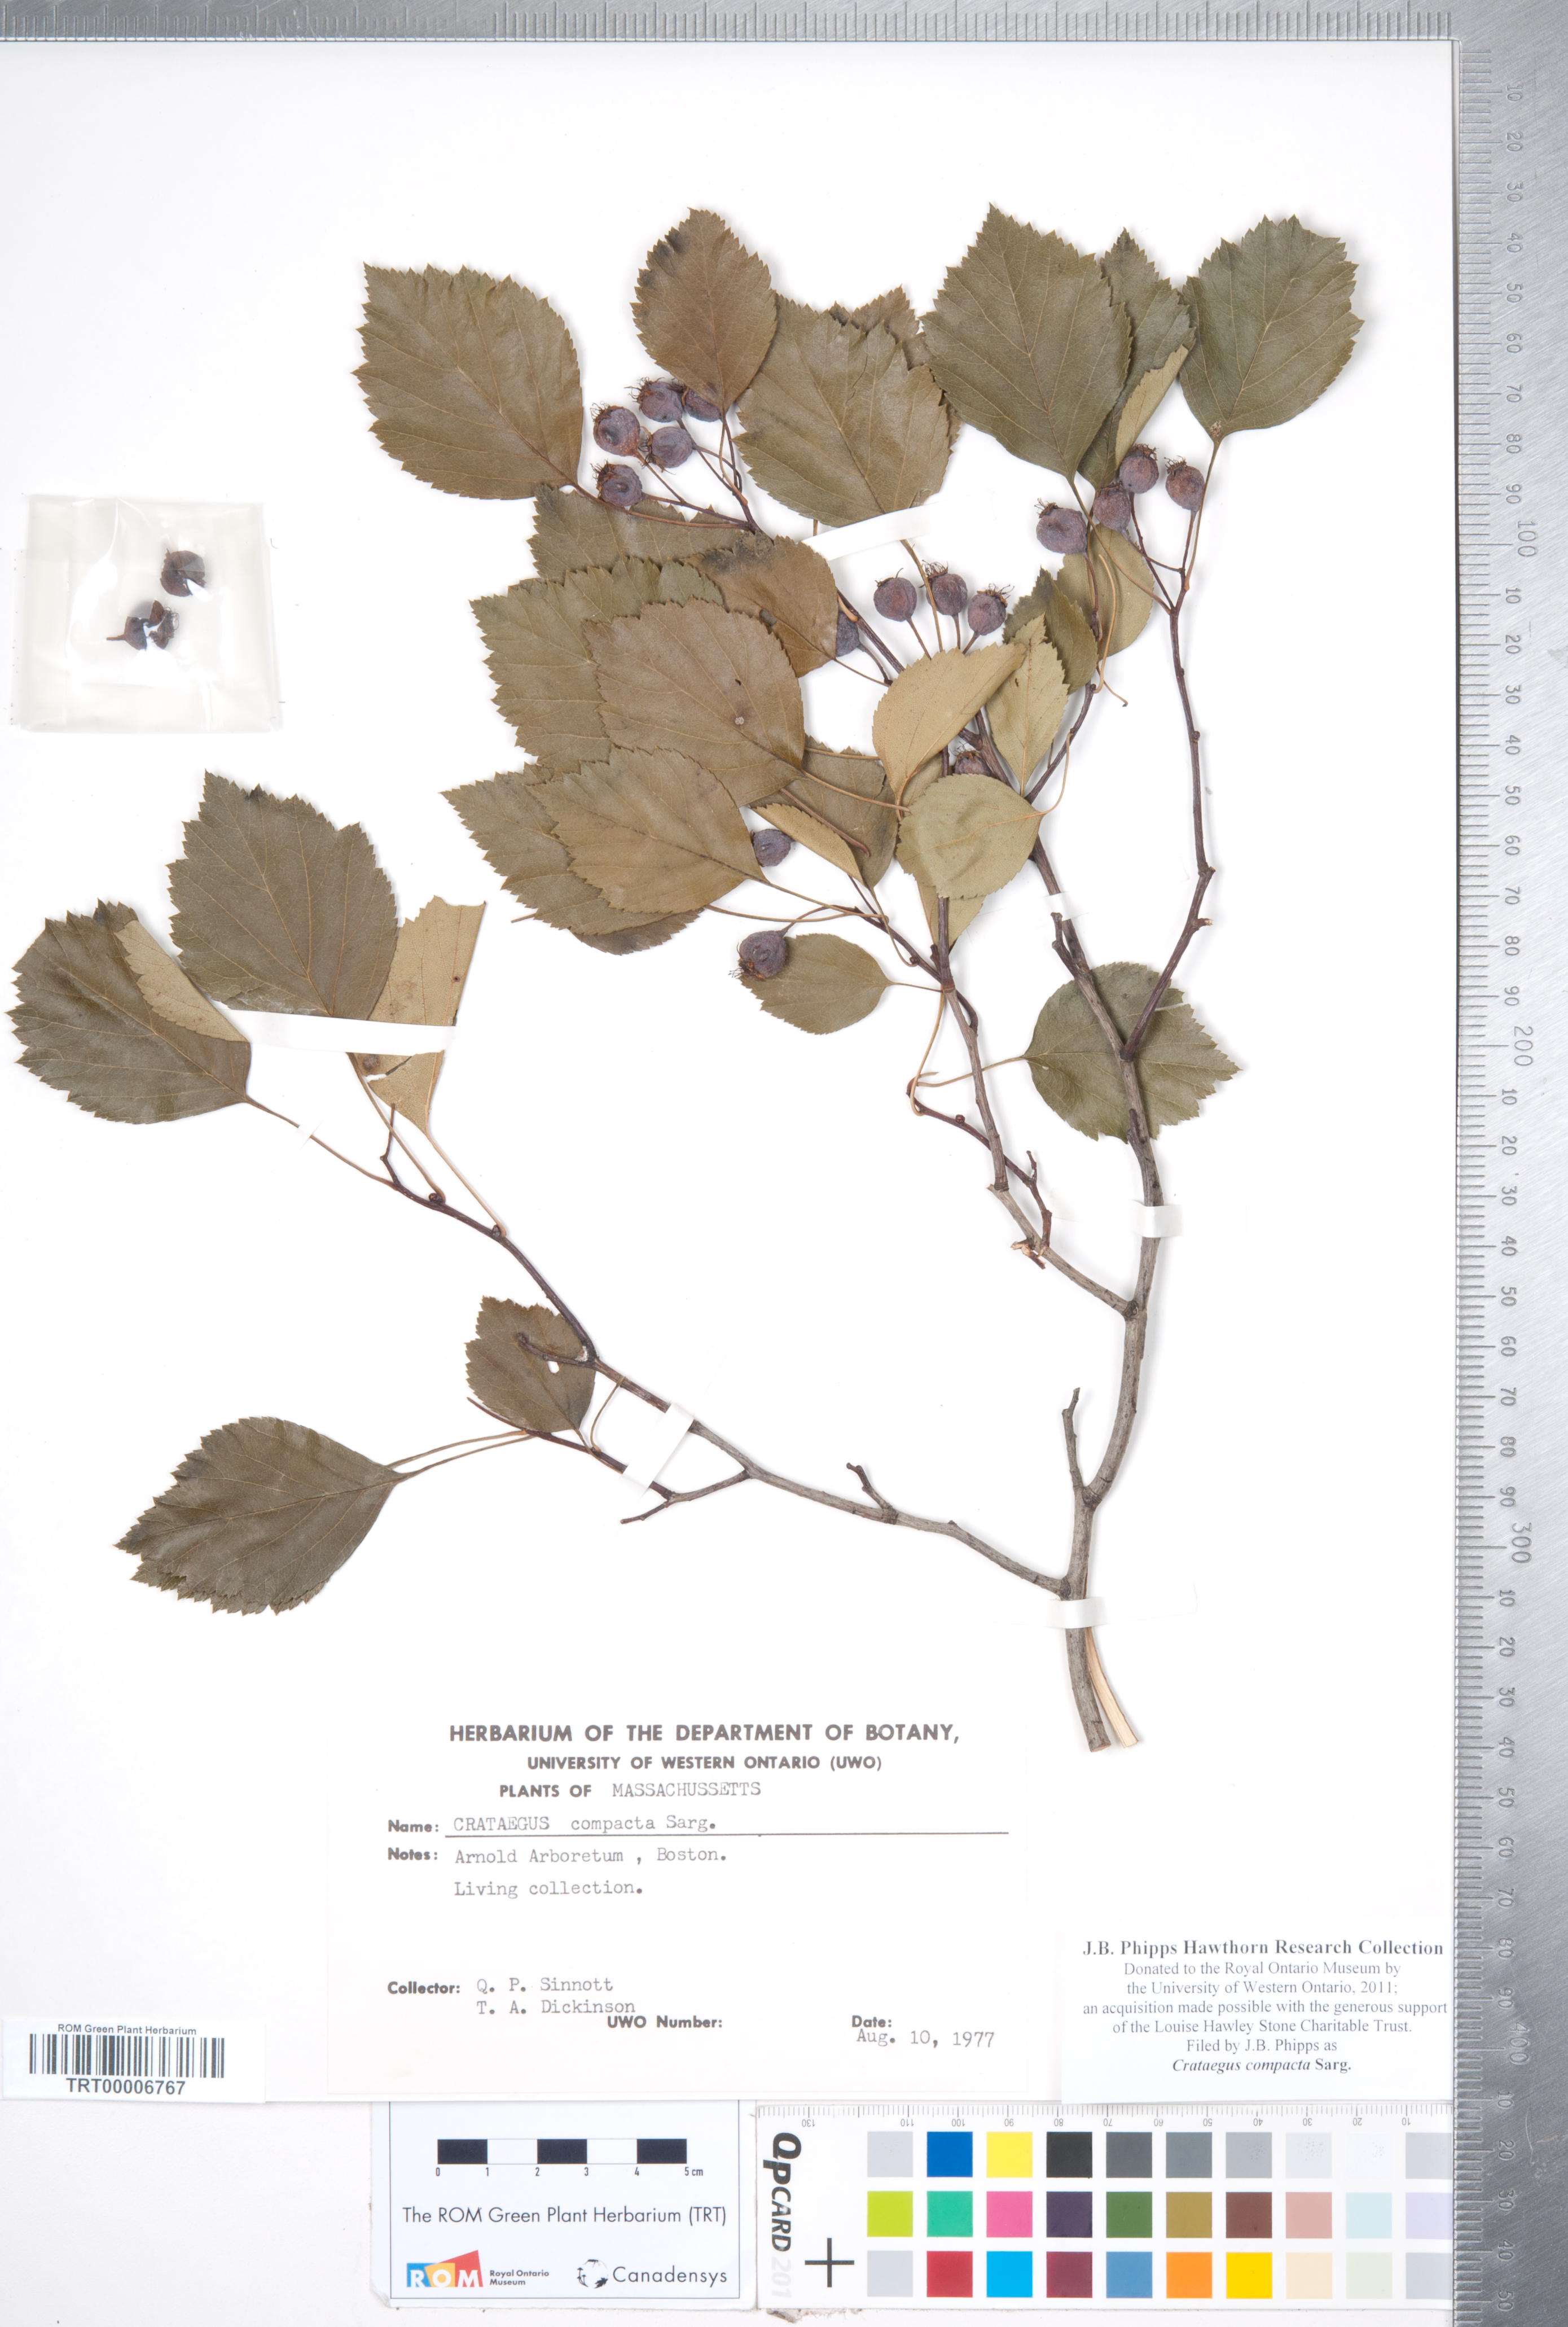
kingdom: Plantae
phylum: Tracheophyta
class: Magnoliopsida
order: Rosales
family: Rosaceae
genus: Crataegus
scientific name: Crataegus compacta
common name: Clustered hawthorn
